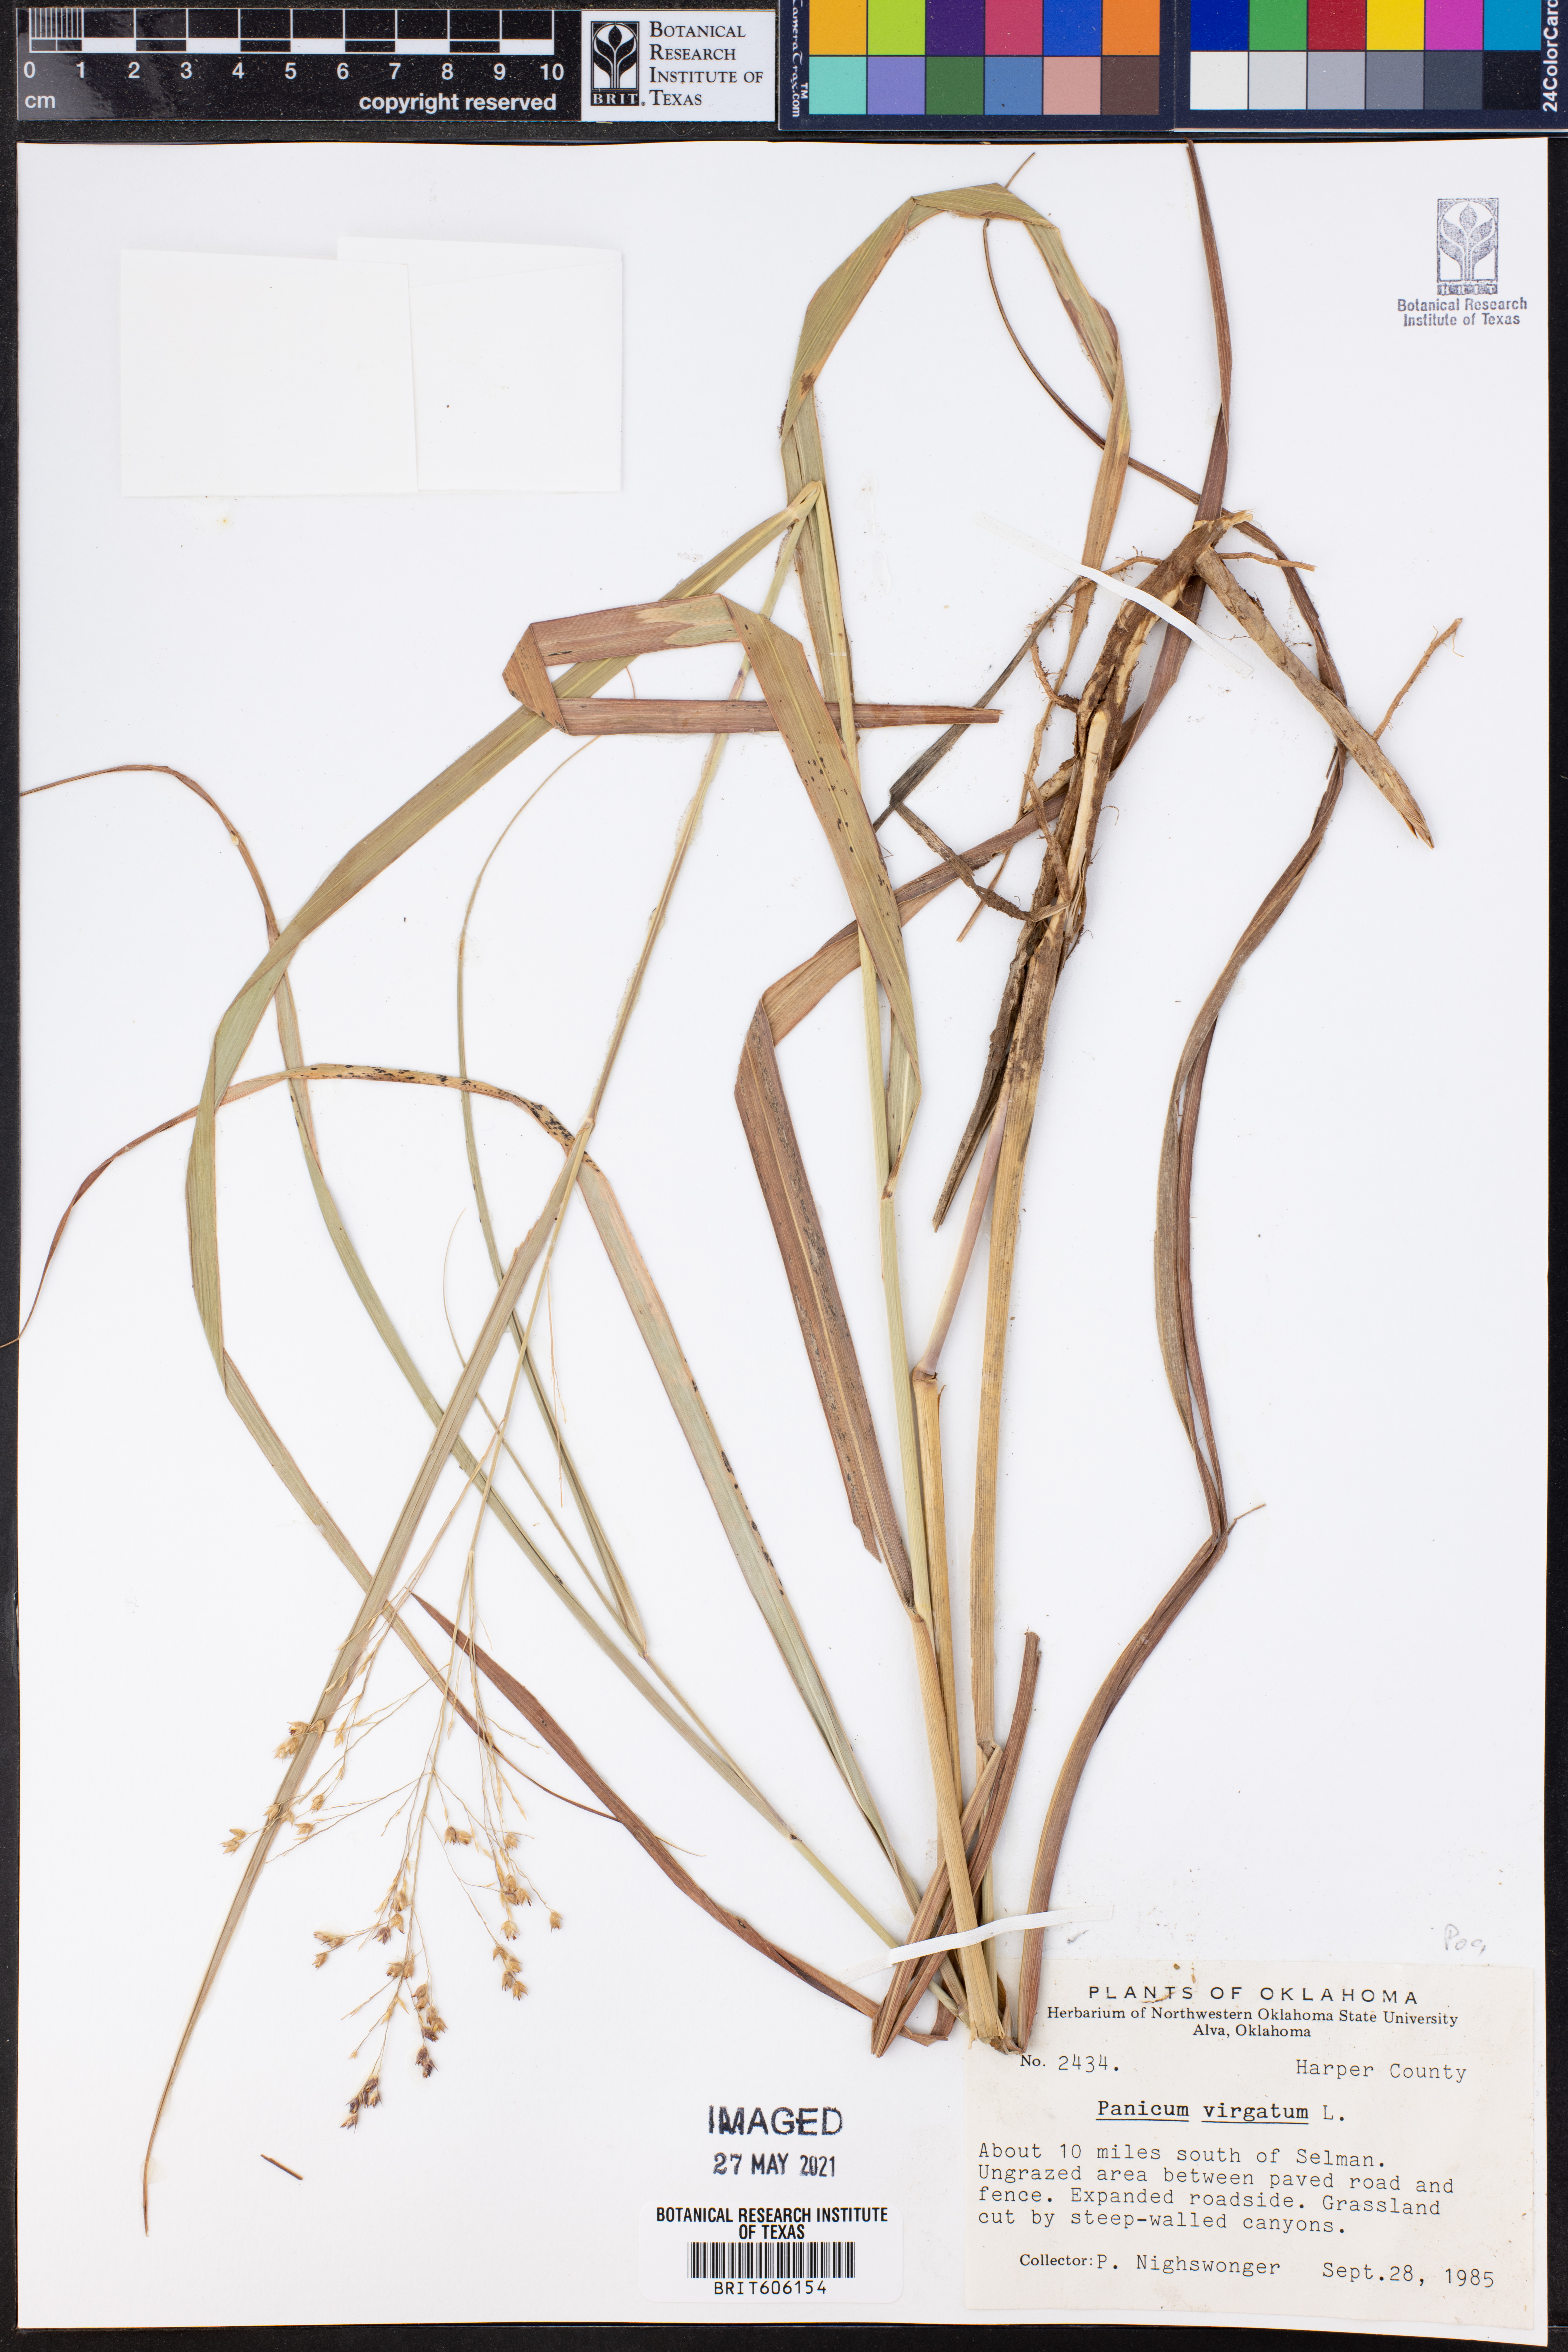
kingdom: Plantae
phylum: Tracheophyta
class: Liliopsida
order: Poales
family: Poaceae
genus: Panicum
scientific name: Panicum virgatum
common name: Switchgrass
